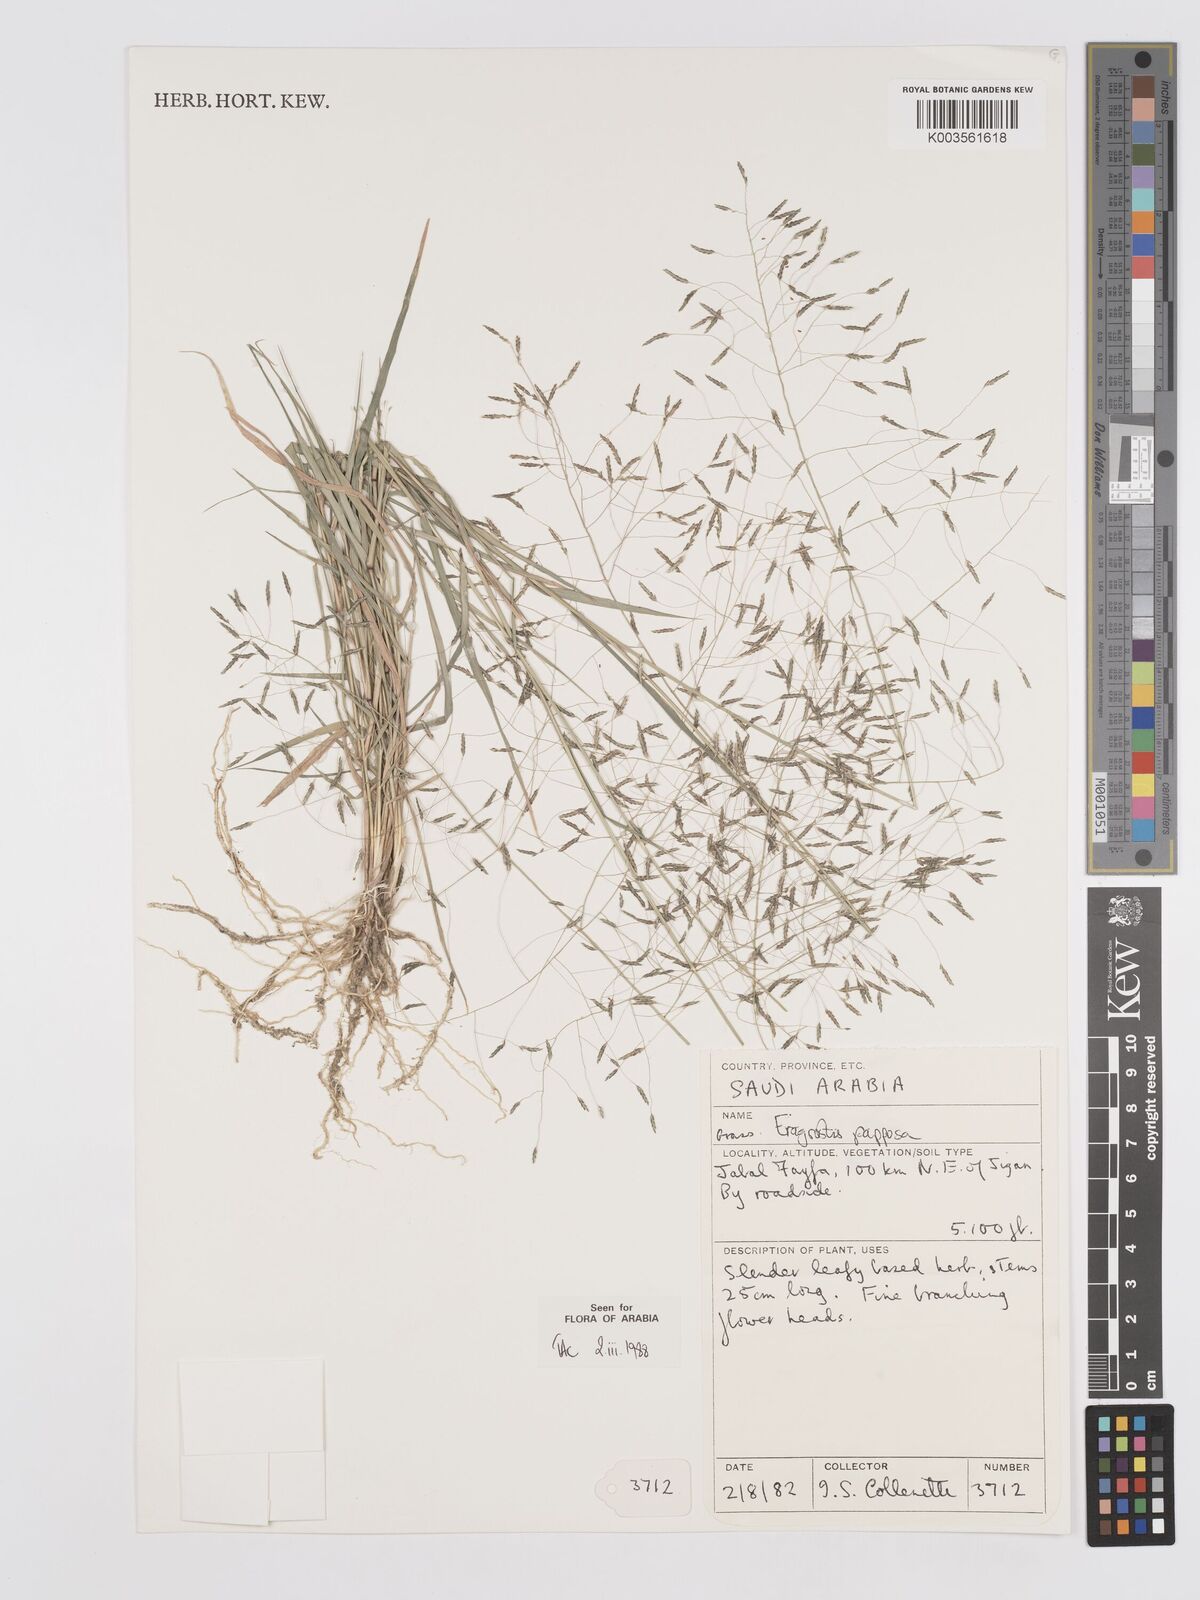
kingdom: Plantae
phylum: Tracheophyta
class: Liliopsida
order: Poales
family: Poaceae
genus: Eragrostis
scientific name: Eragrostis papposa
